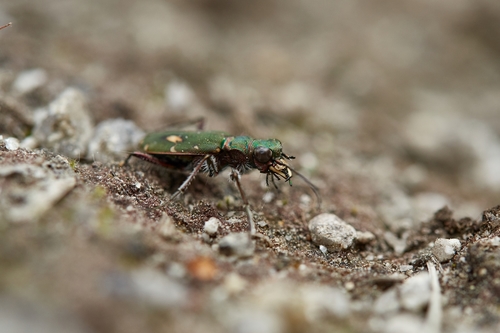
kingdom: Animalia
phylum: Arthropoda
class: Insecta
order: Coleoptera
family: Carabidae
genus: Cicindela
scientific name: Cicindela campestris
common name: Common tiger beetle
